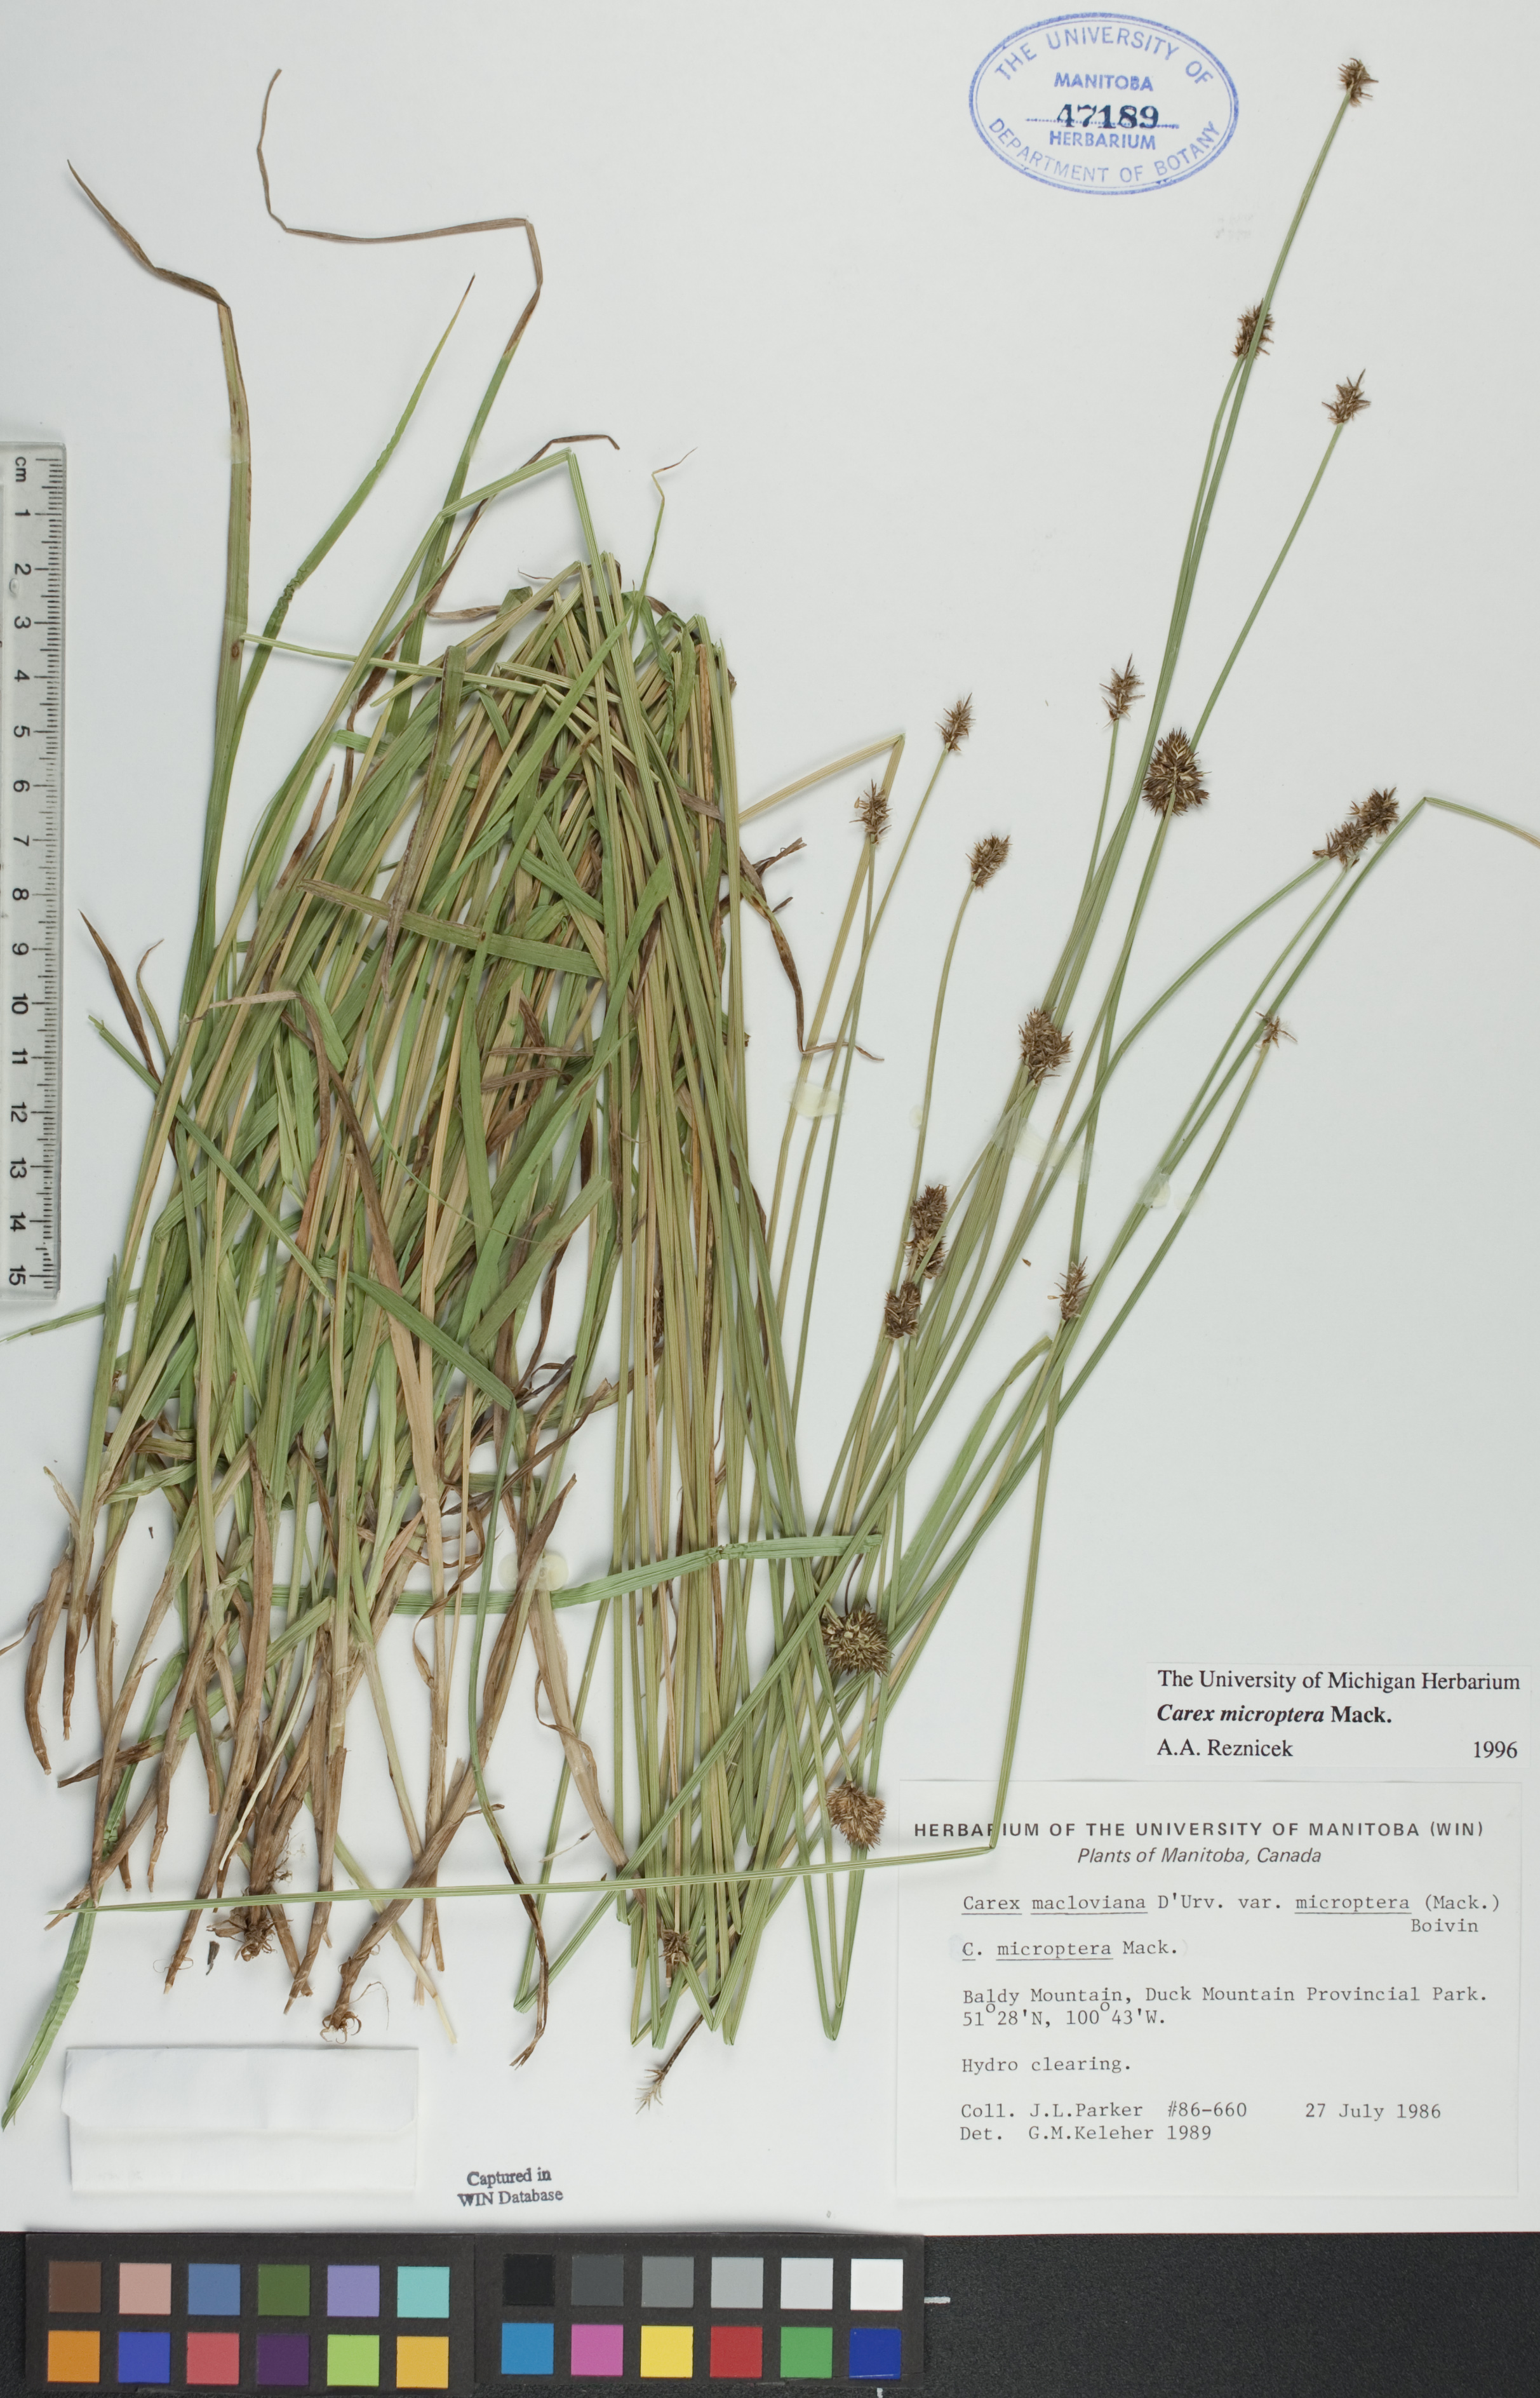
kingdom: Plantae
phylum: Tracheophyta
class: Liliopsida
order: Poales
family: Cyperaceae
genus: Carex
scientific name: Carex microptera
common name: Oval-headed sedge
